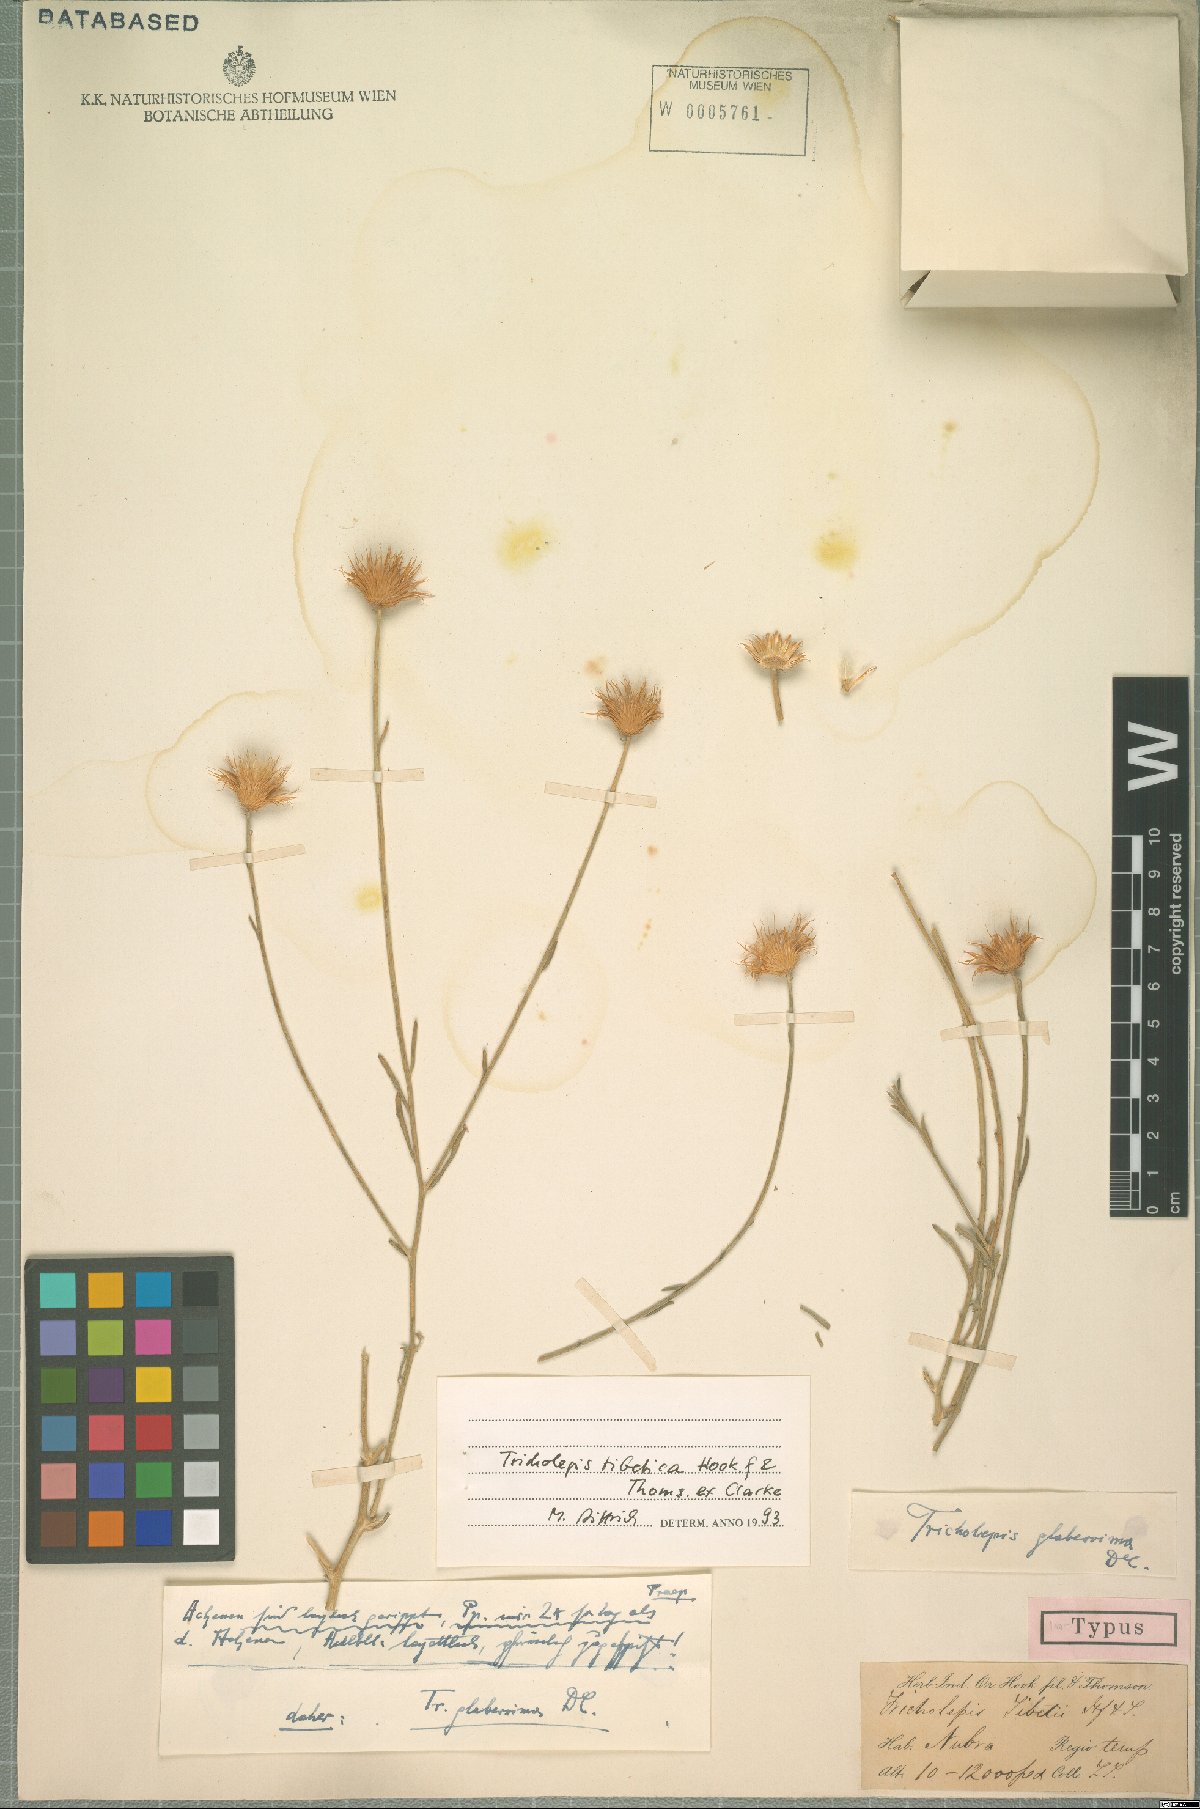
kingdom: Plantae
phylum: Tracheophyta
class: Magnoliopsida
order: Asterales
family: Asteraceae
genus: Tricholepis
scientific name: Tricholepis tibetica
